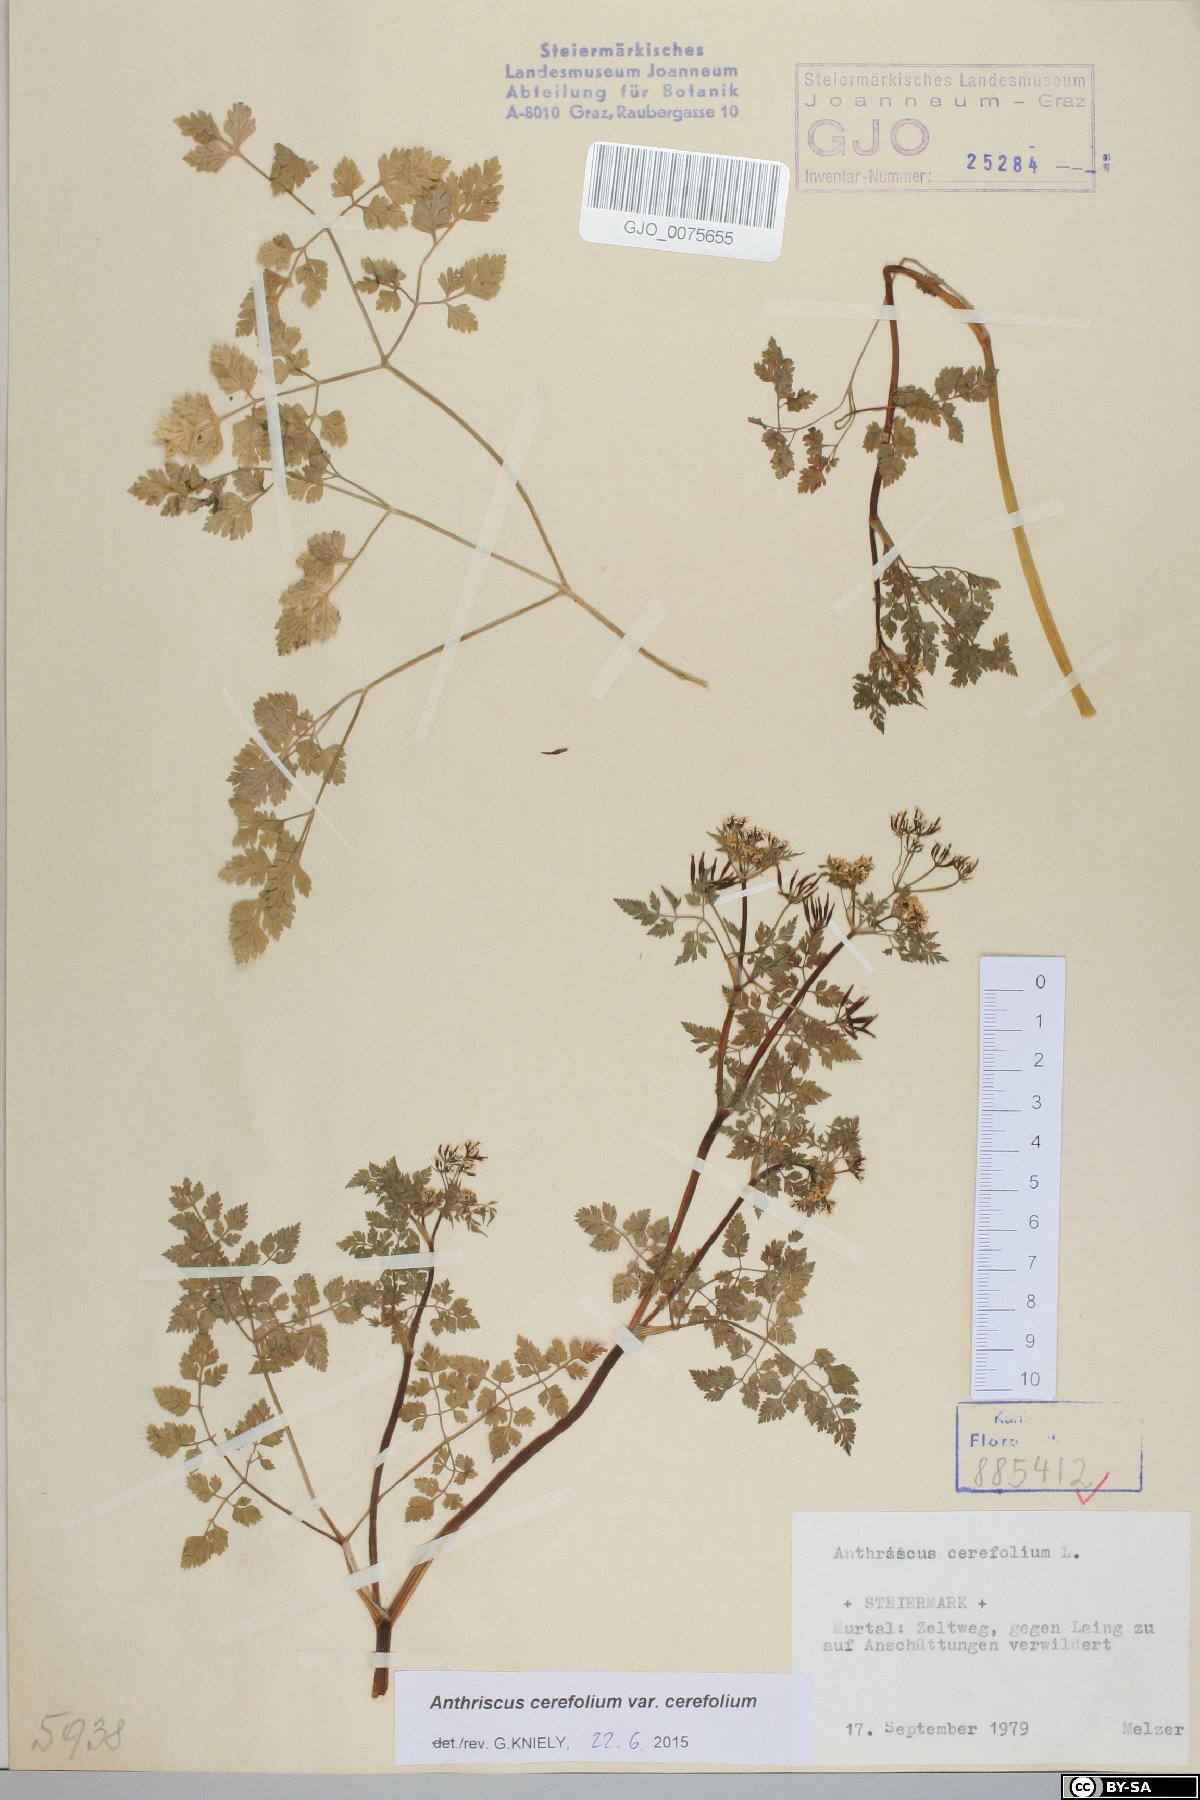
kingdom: Plantae
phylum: Tracheophyta
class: Magnoliopsida
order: Apiales
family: Apiaceae
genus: Anthriscus
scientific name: Anthriscus cerefolium
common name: Garden chervil
